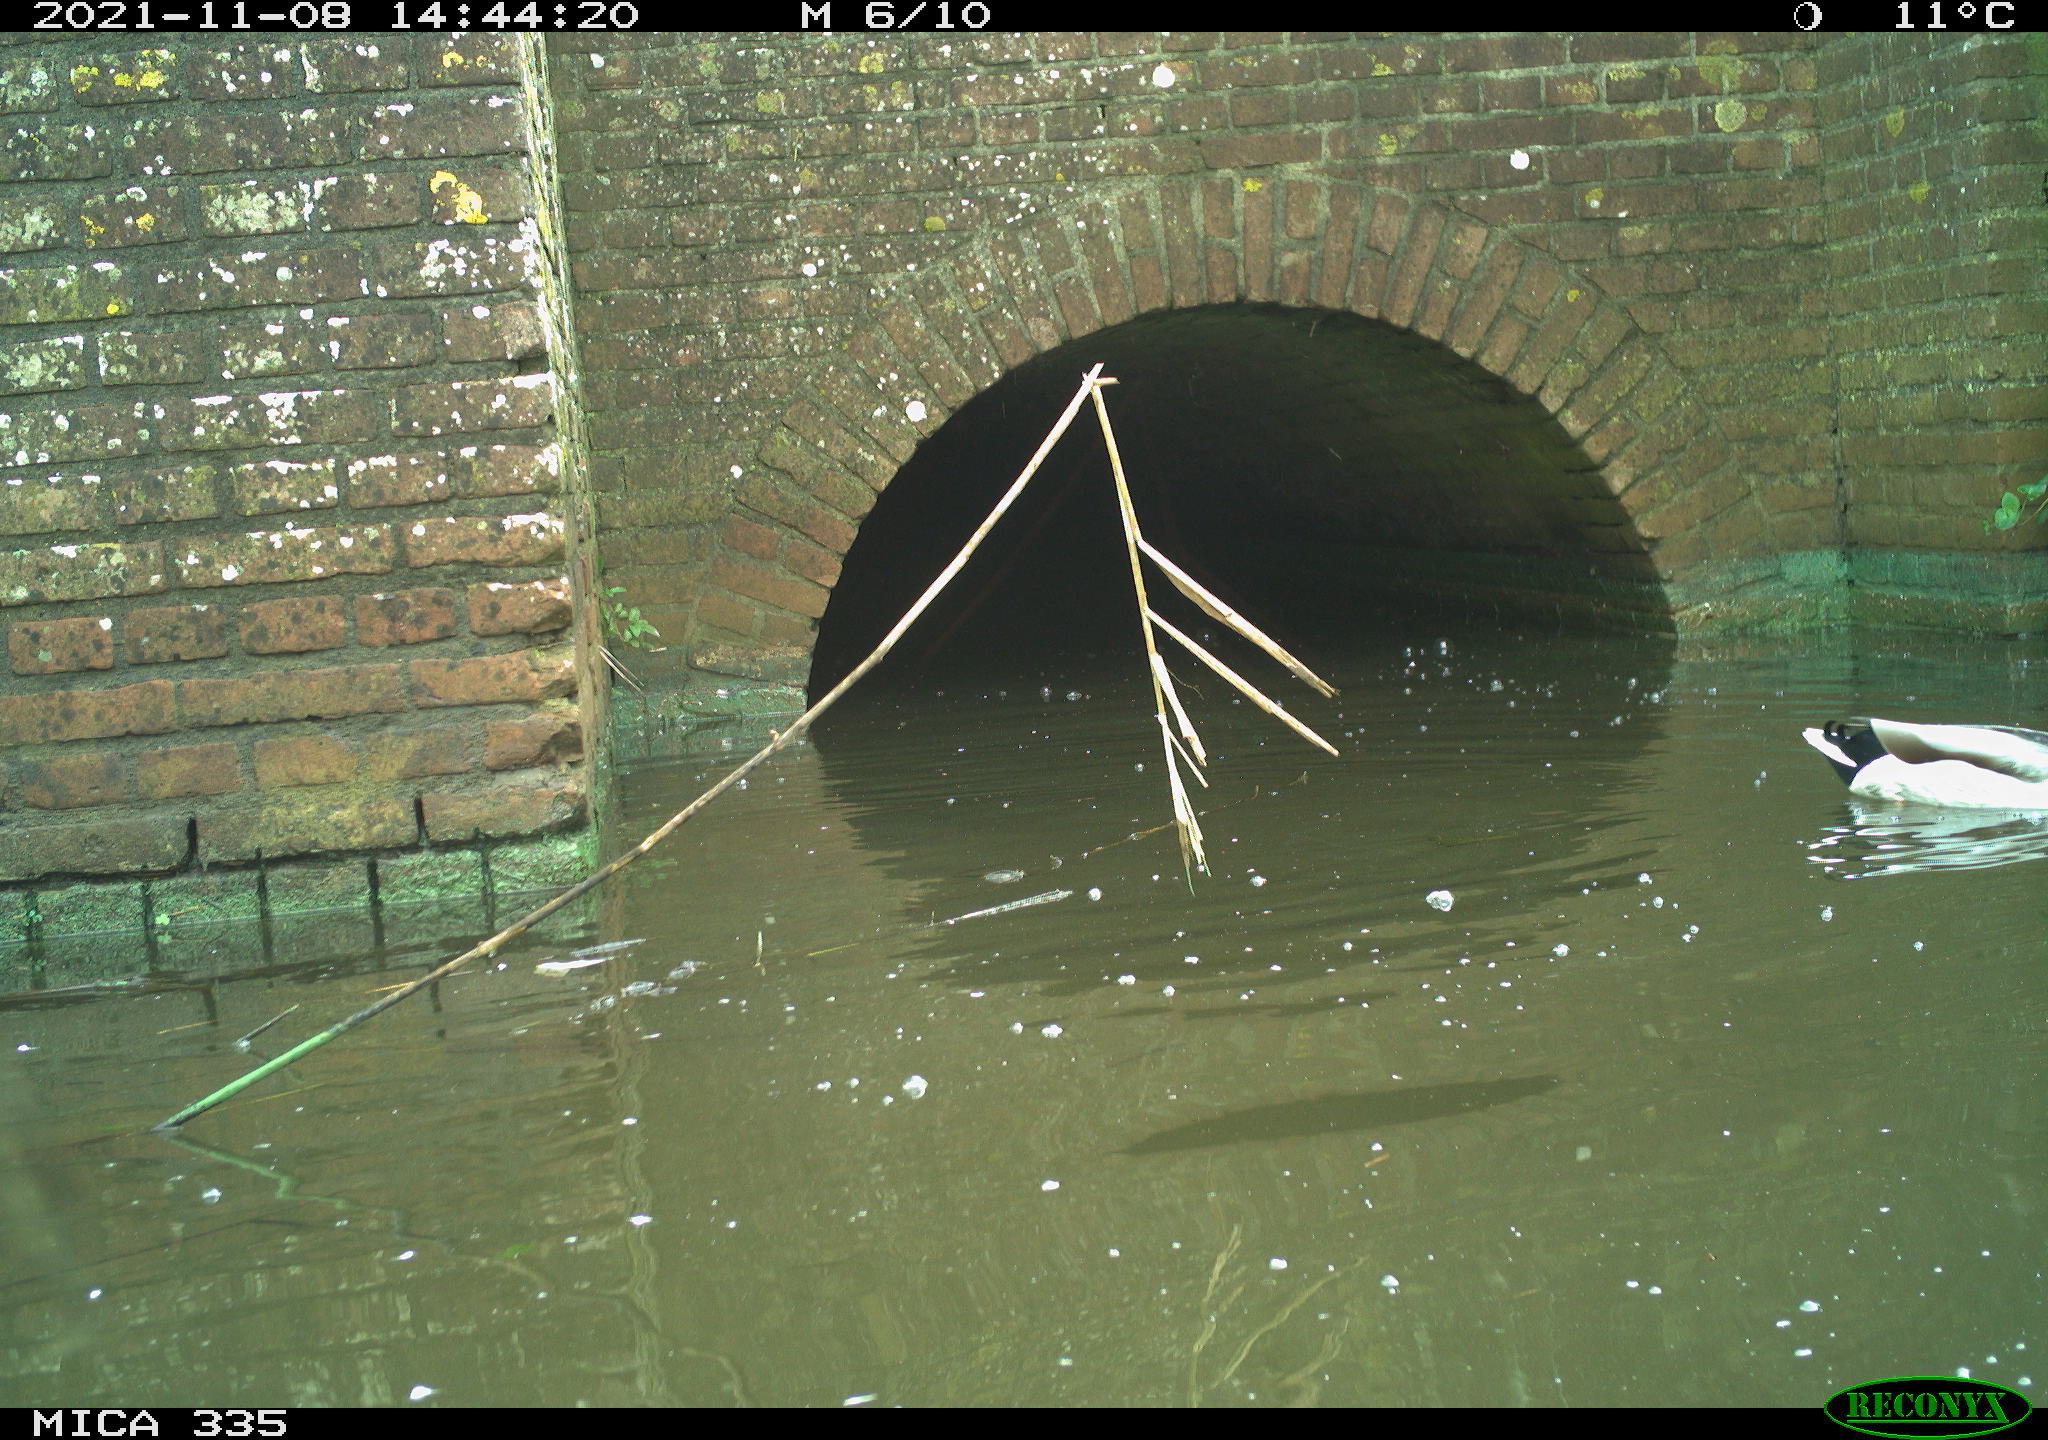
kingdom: Animalia
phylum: Chordata
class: Aves
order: Anseriformes
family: Anatidae
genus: Anas
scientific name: Anas platyrhynchos
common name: Mallard
